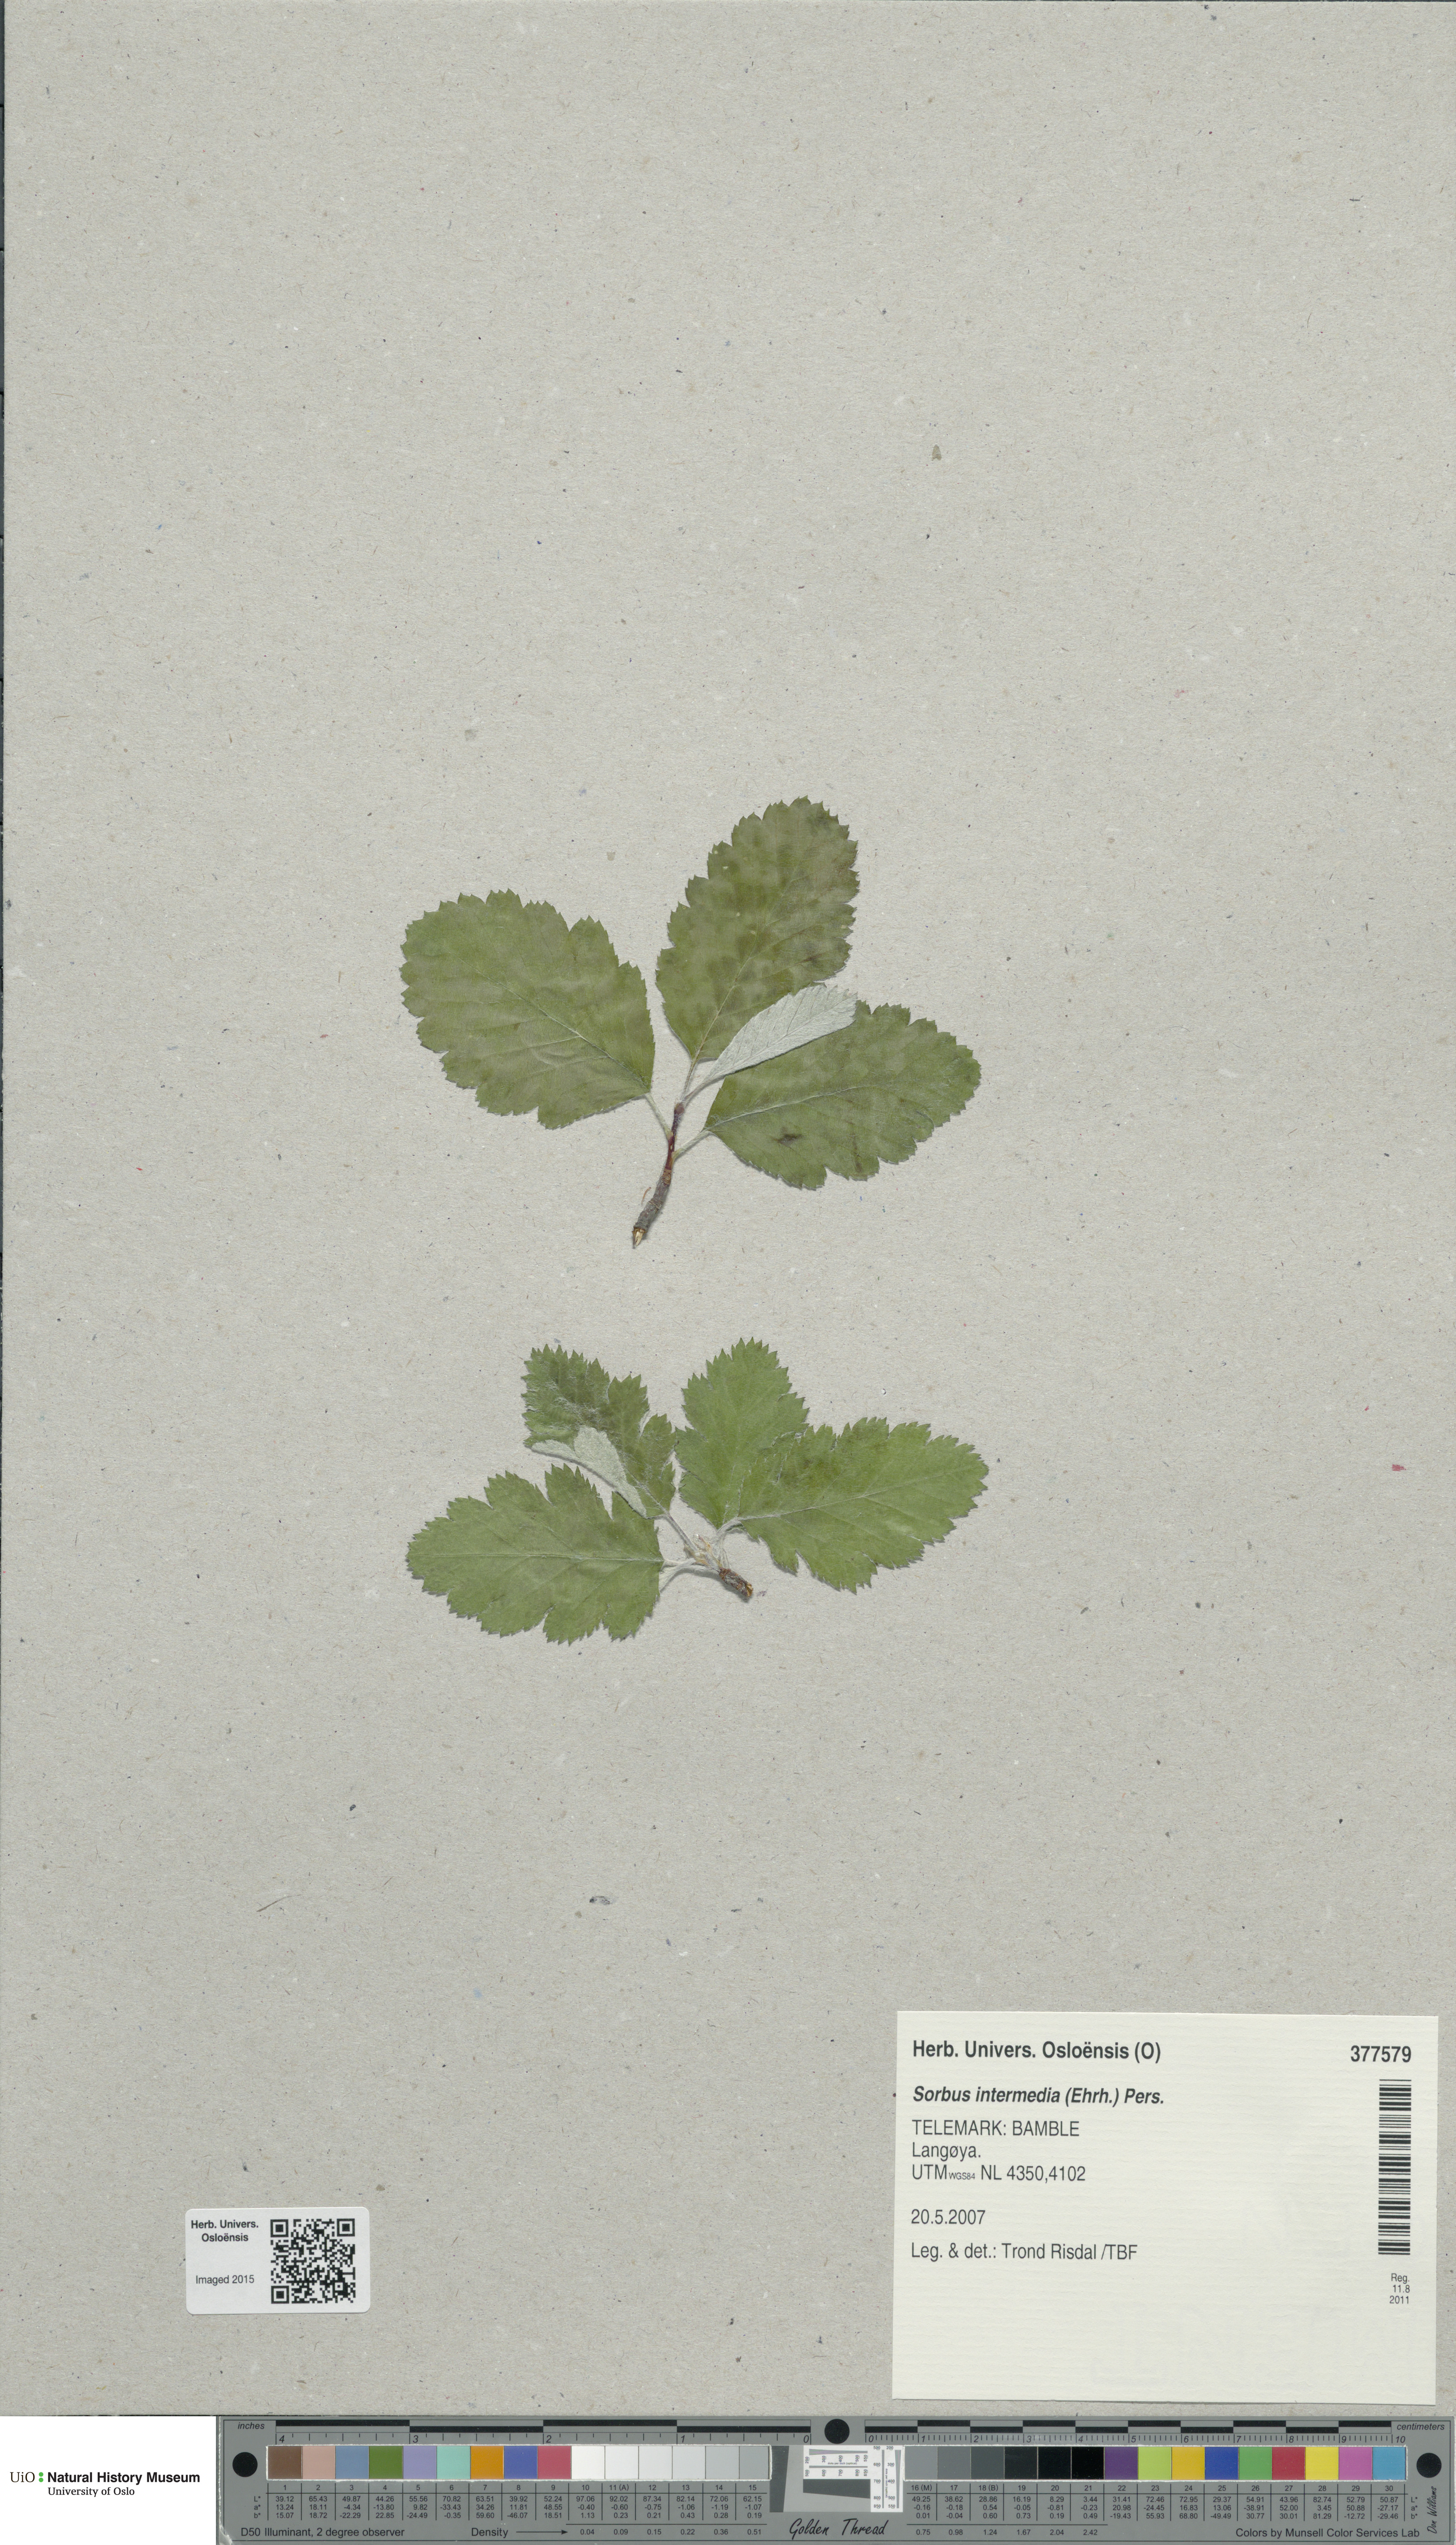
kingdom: Plantae
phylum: Tracheophyta
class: Magnoliopsida
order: Rosales
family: Rosaceae
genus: Scandosorbus
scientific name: Scandosorbus intermedia
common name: Swedish whitebeam
